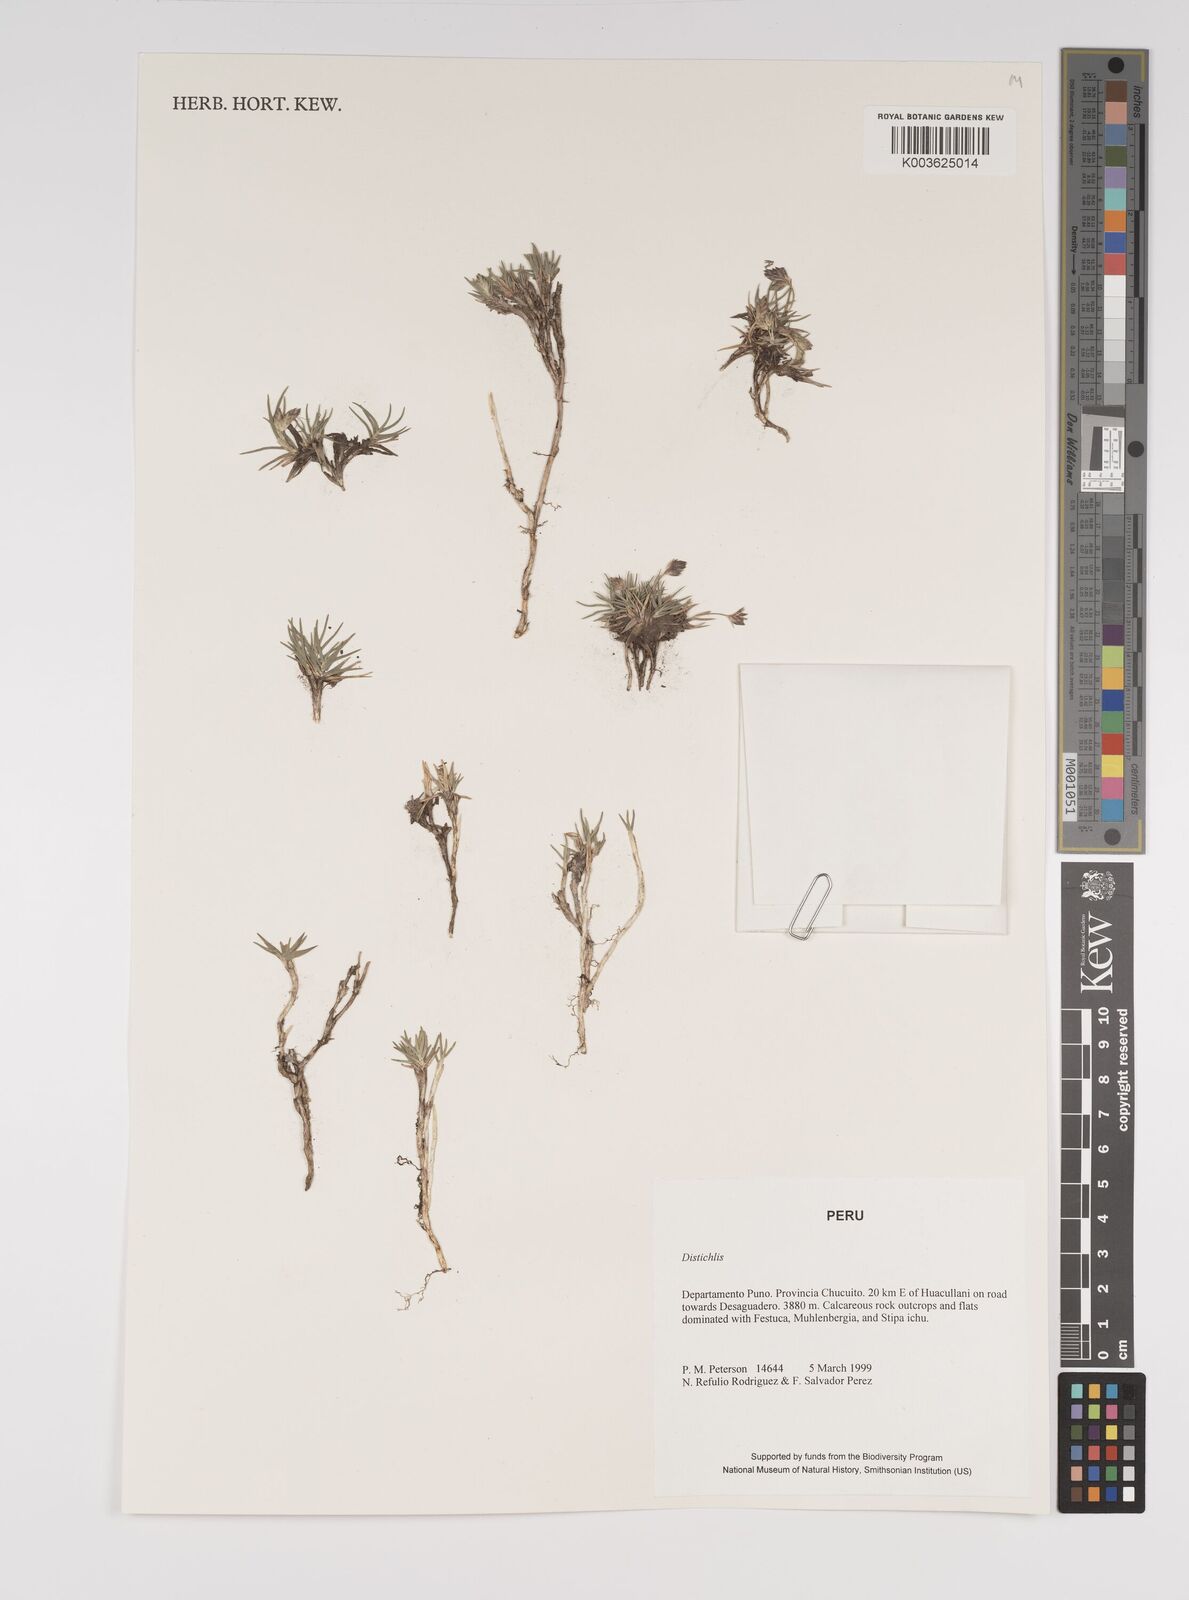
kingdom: Plantae
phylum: Tracheophyta
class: Liliopsida
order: Poales
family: Poaceae
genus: Distichlis
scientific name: Distichlis humilis
